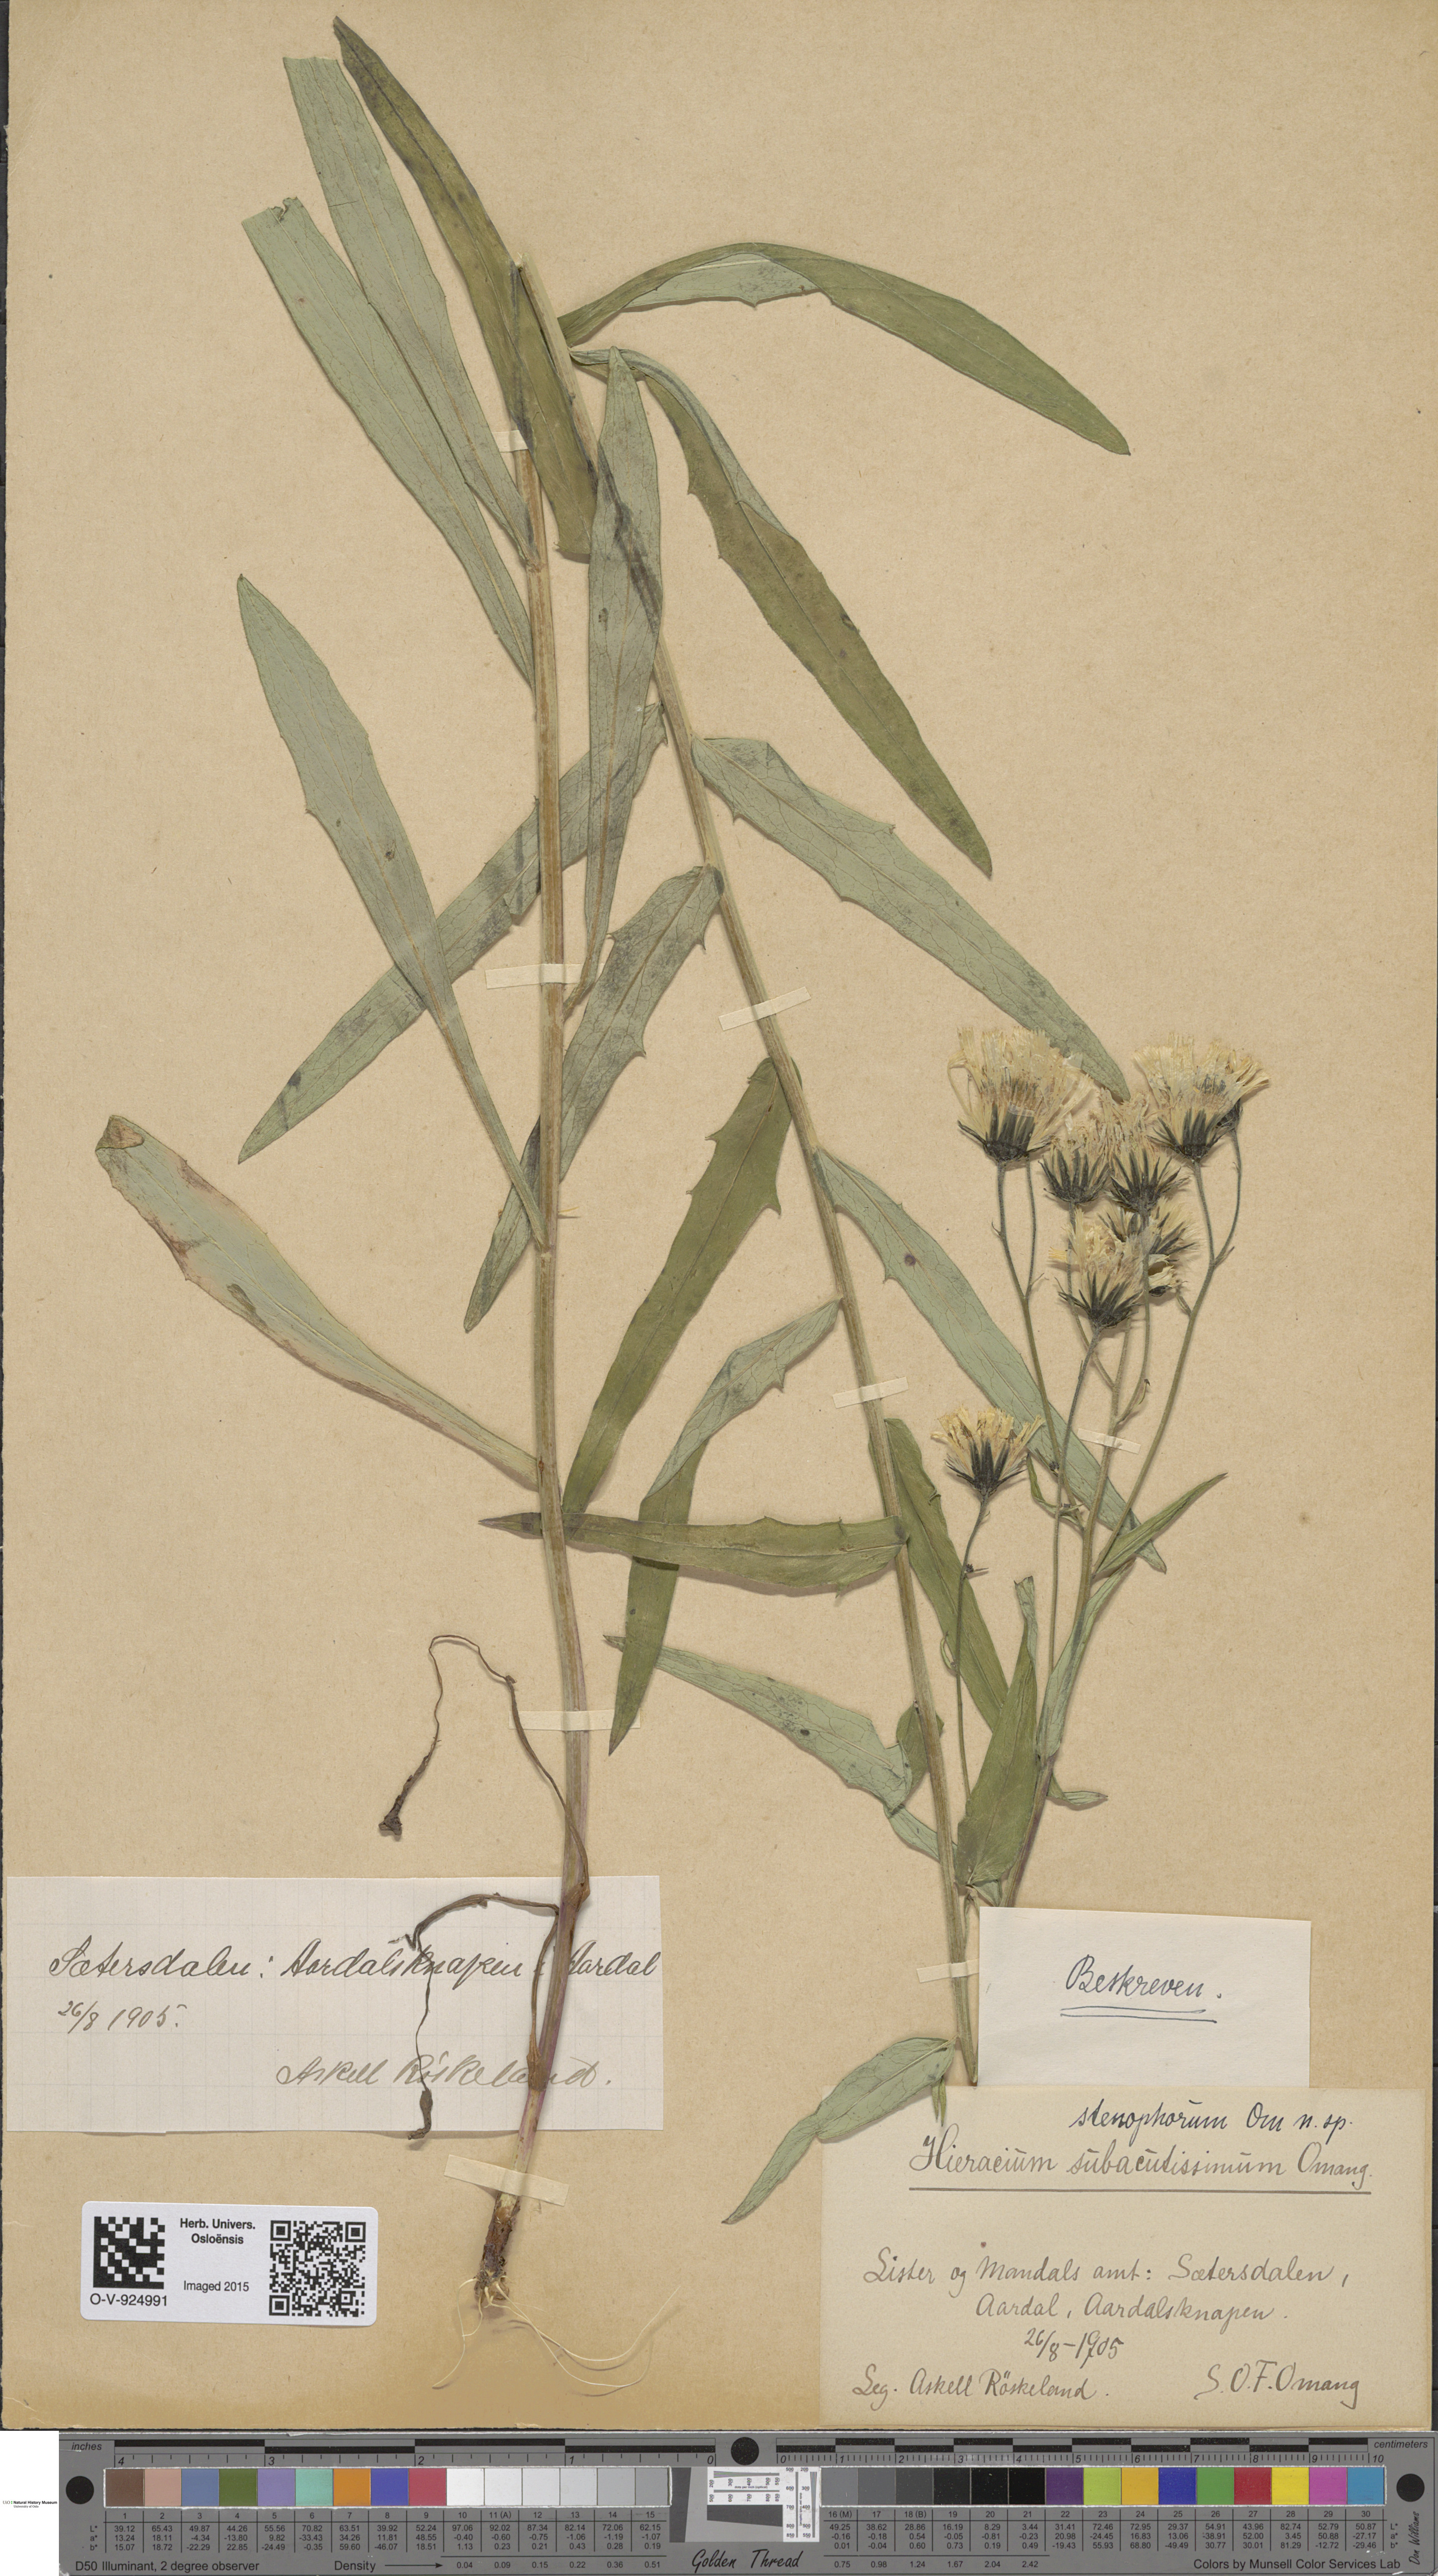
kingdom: Plantae
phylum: Tracheophyta
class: Magnoliopsida
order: Asterales
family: Asteraceae
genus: Hieracium
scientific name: Hieracium
